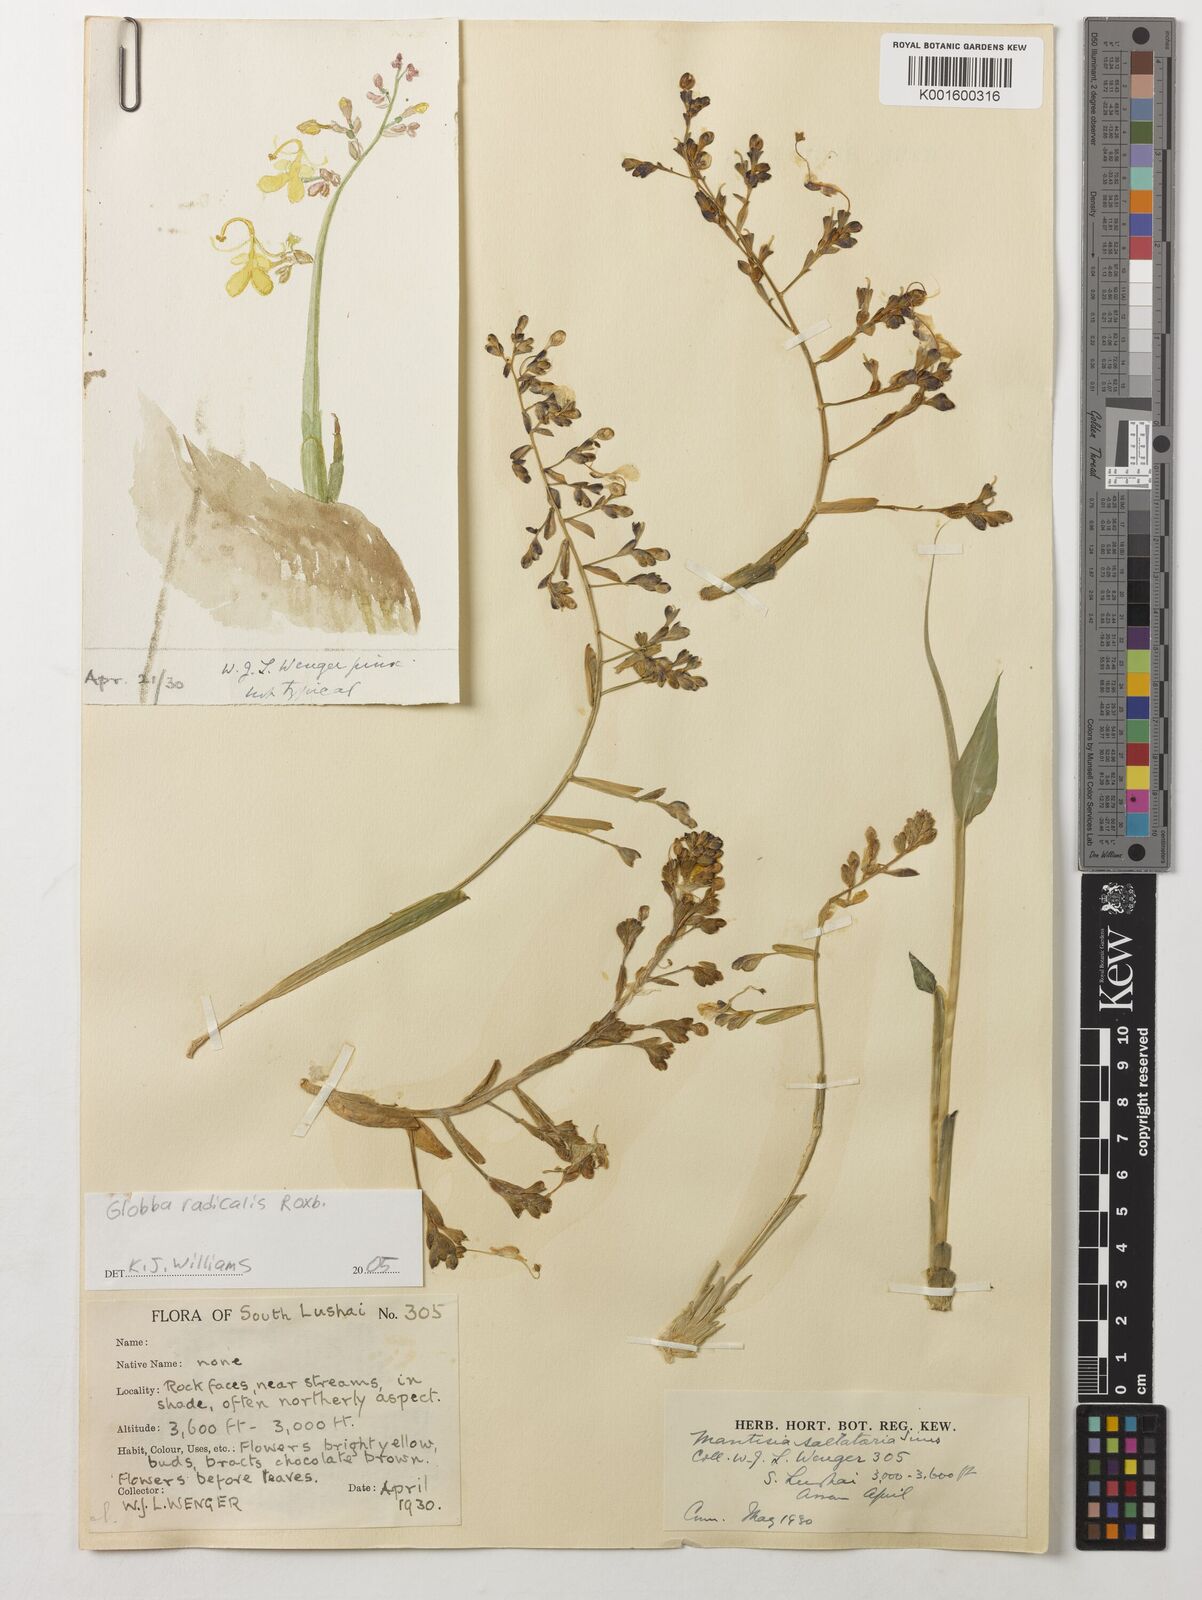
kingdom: Plantae
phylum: Tracheophyta
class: Liliopsida
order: Zingiberales
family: Zingiberaceae
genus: Globba
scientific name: Globba radicalis
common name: Dancing girl
